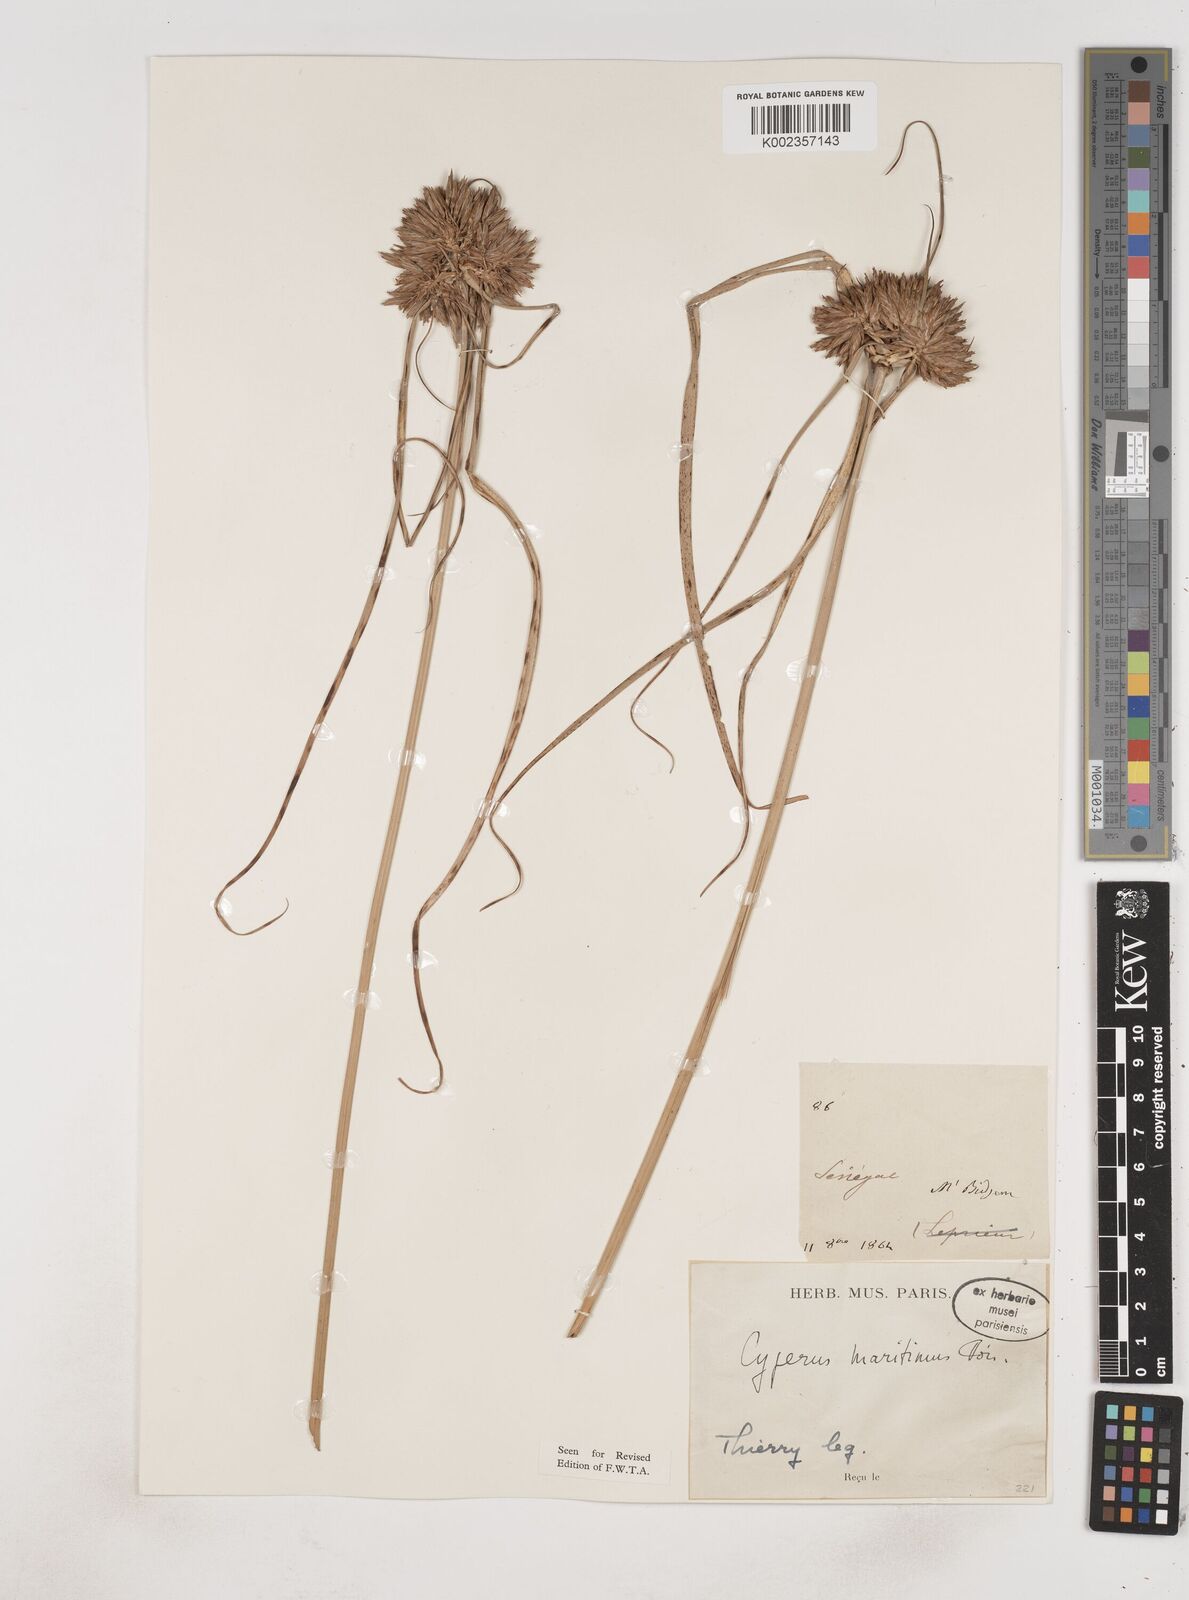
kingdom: Plantae
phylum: Tracheophyta
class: Liliopsida
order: Poales
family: Cyperaceae
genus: Cyperus
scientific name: Cyperus crassipes
